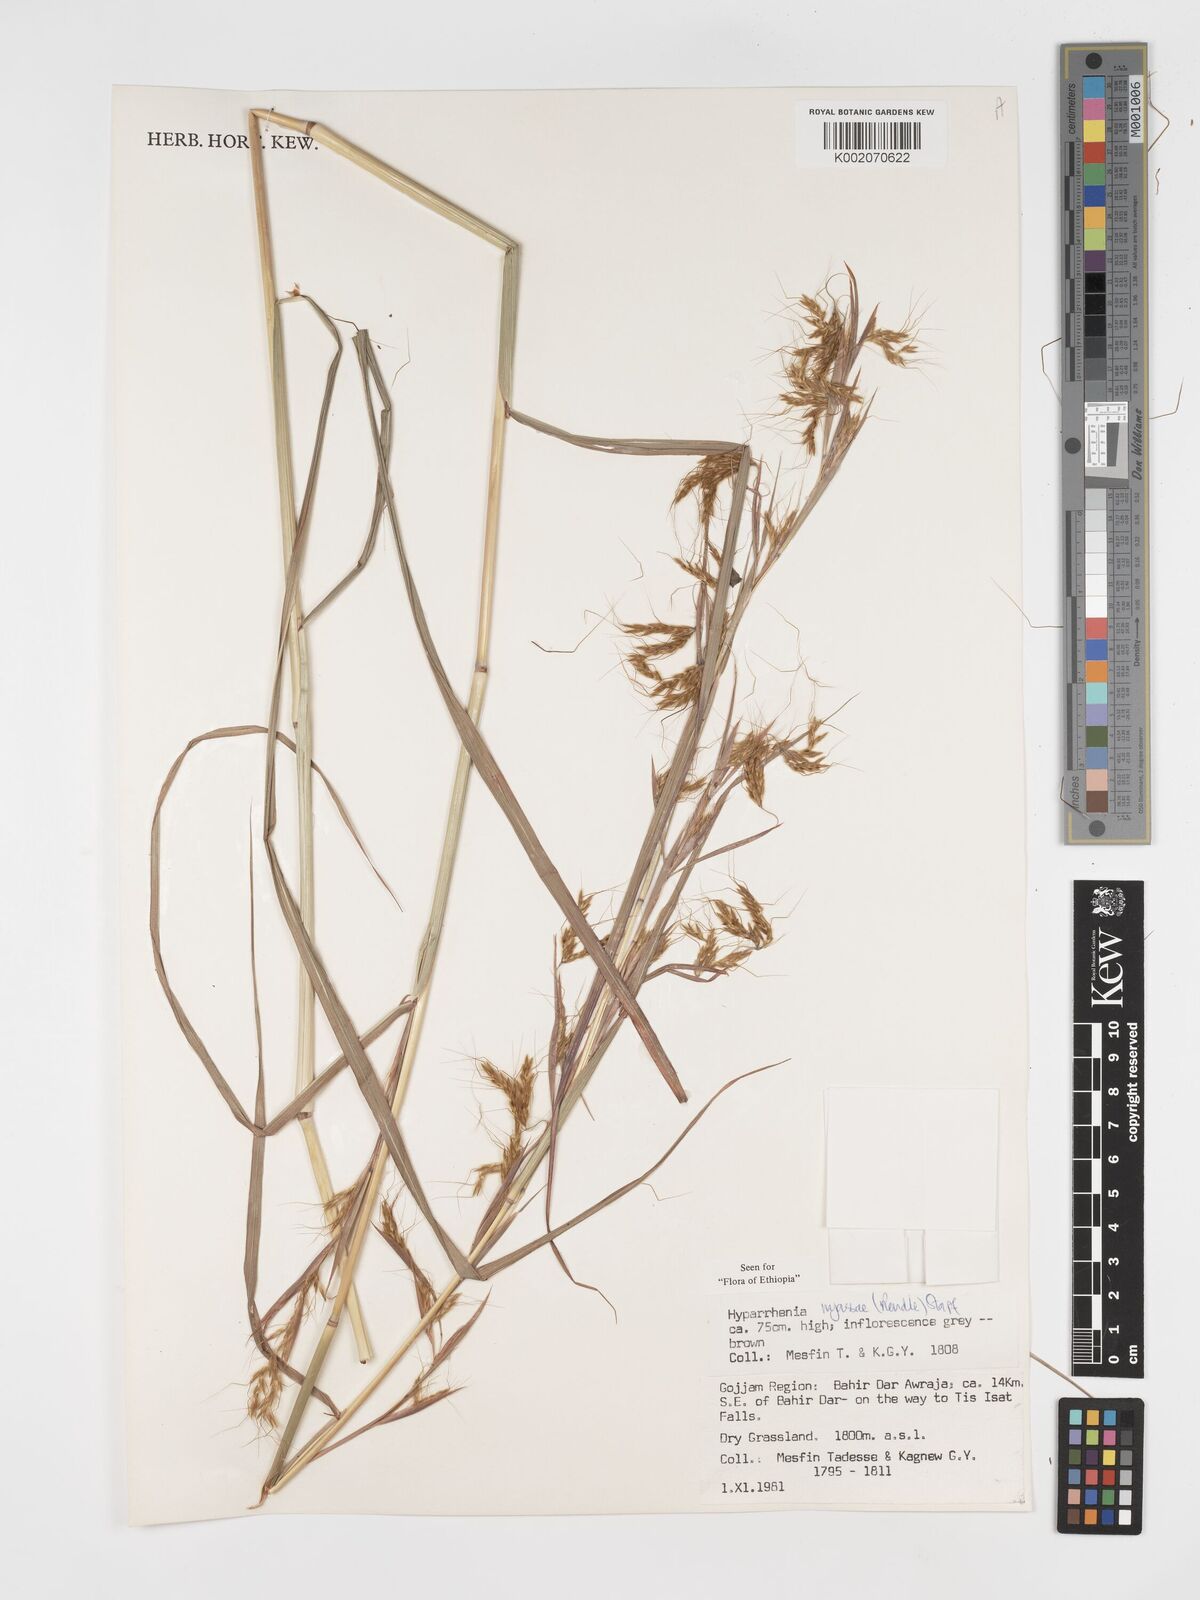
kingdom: Plantae
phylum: Tracheophyta
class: Liliopsida
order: Poales
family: Poaceae
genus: Hyparrhenia
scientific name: Hyparrhenia nyassae
